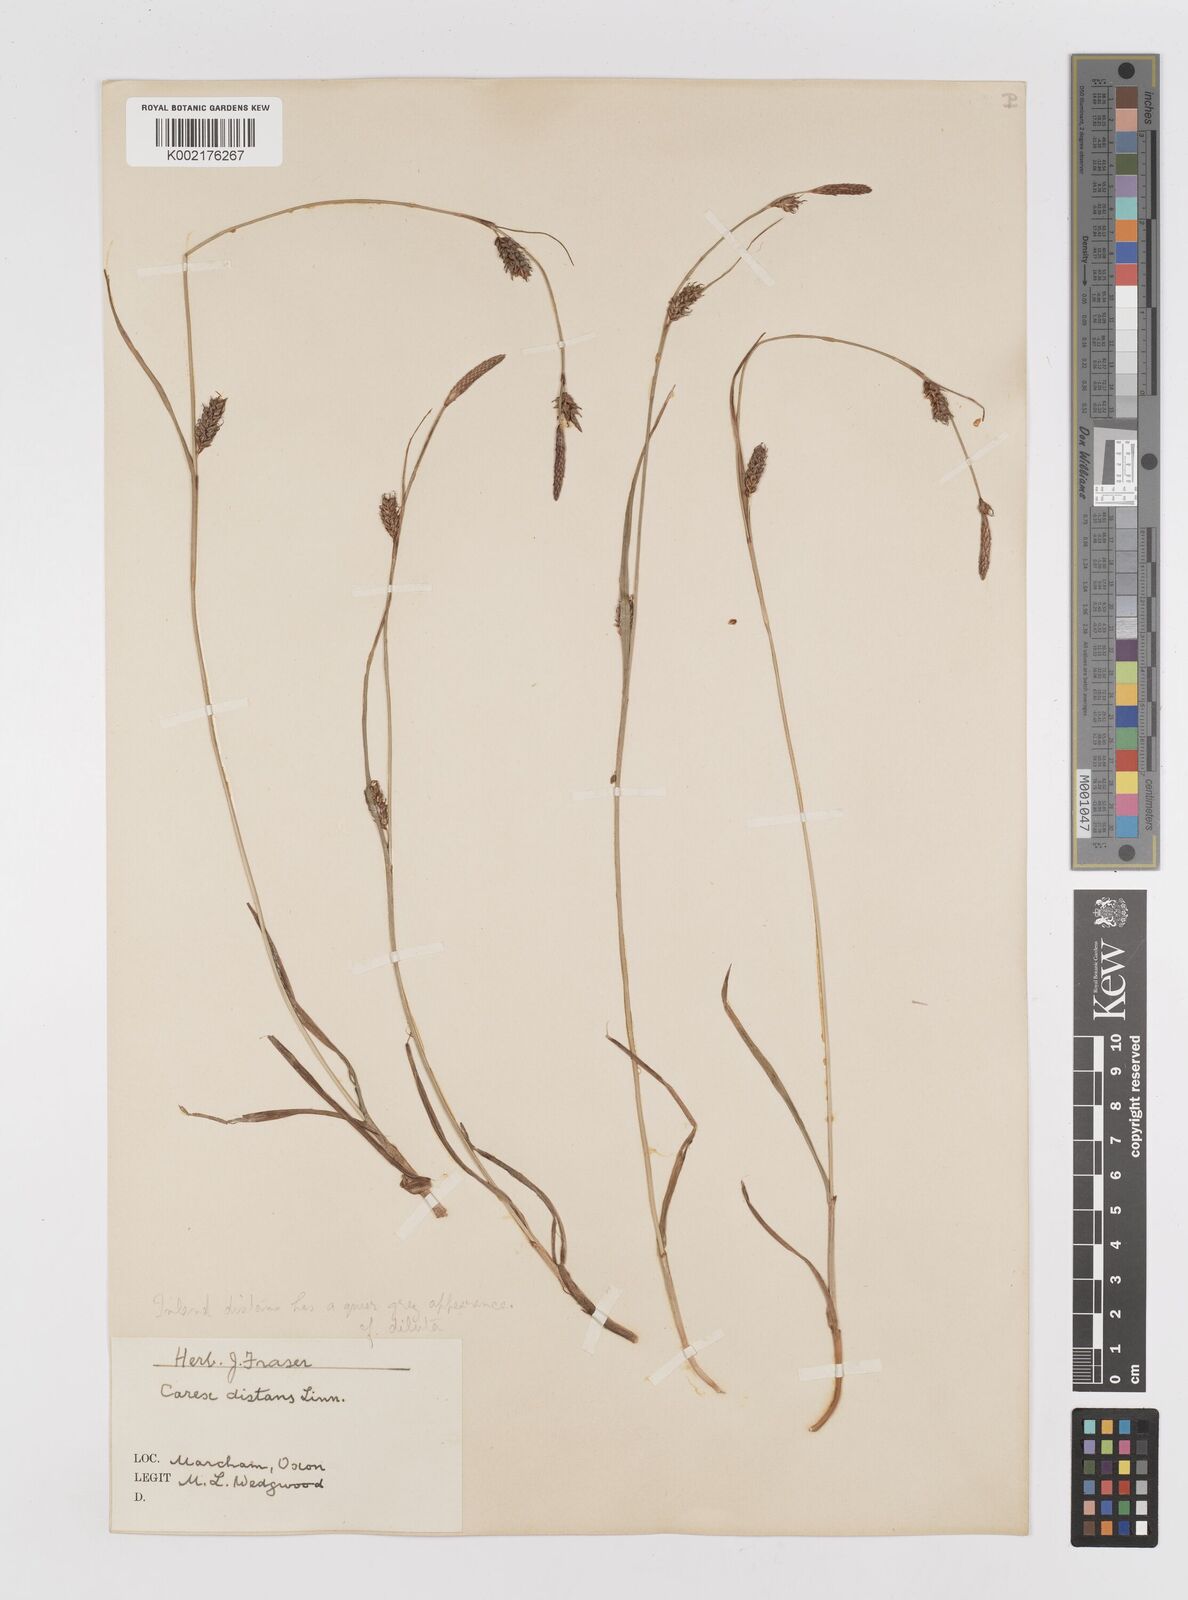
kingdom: Plantae
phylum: Tracheophyta
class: Liliopsida
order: Poales
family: Cyperaceae
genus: Carex
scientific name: Carex distans
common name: Distant sedge
